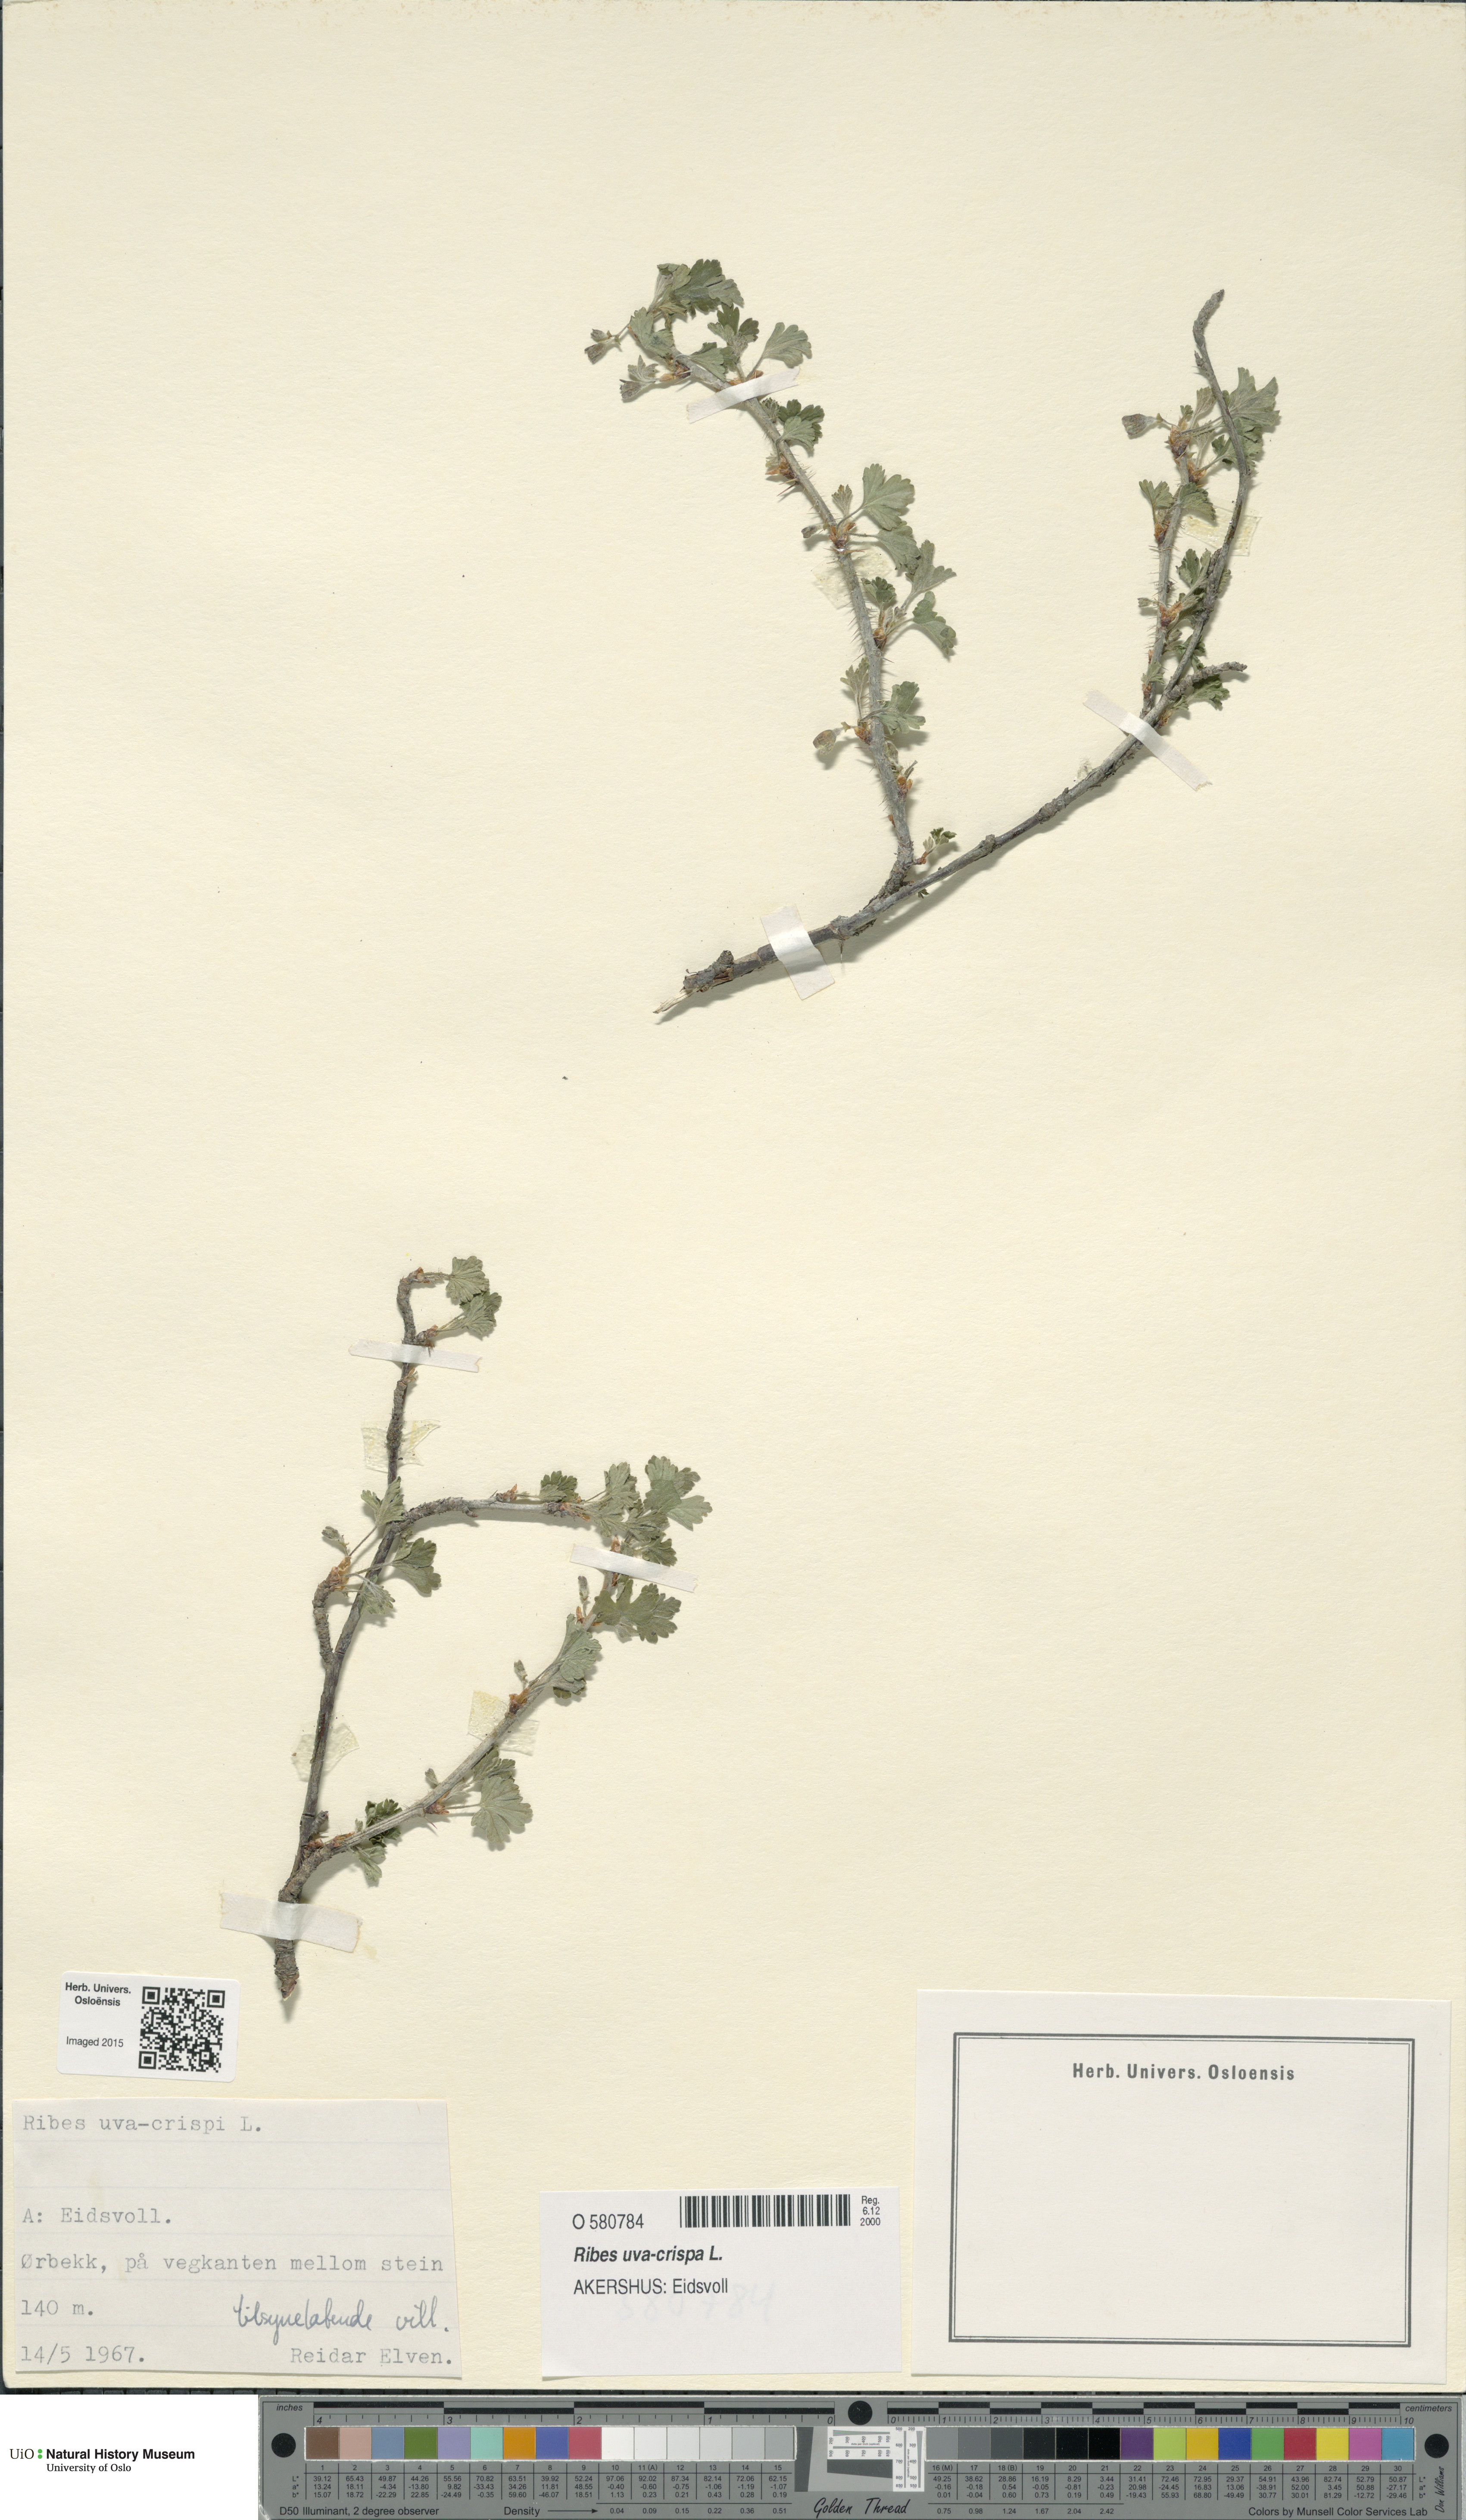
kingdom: Plantae
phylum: Tracheophyta
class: Magnoliopsida
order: Saxifragales
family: Grossulariaceae
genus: Ribes
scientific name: Ribes uva-crispa
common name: Gooseberry
